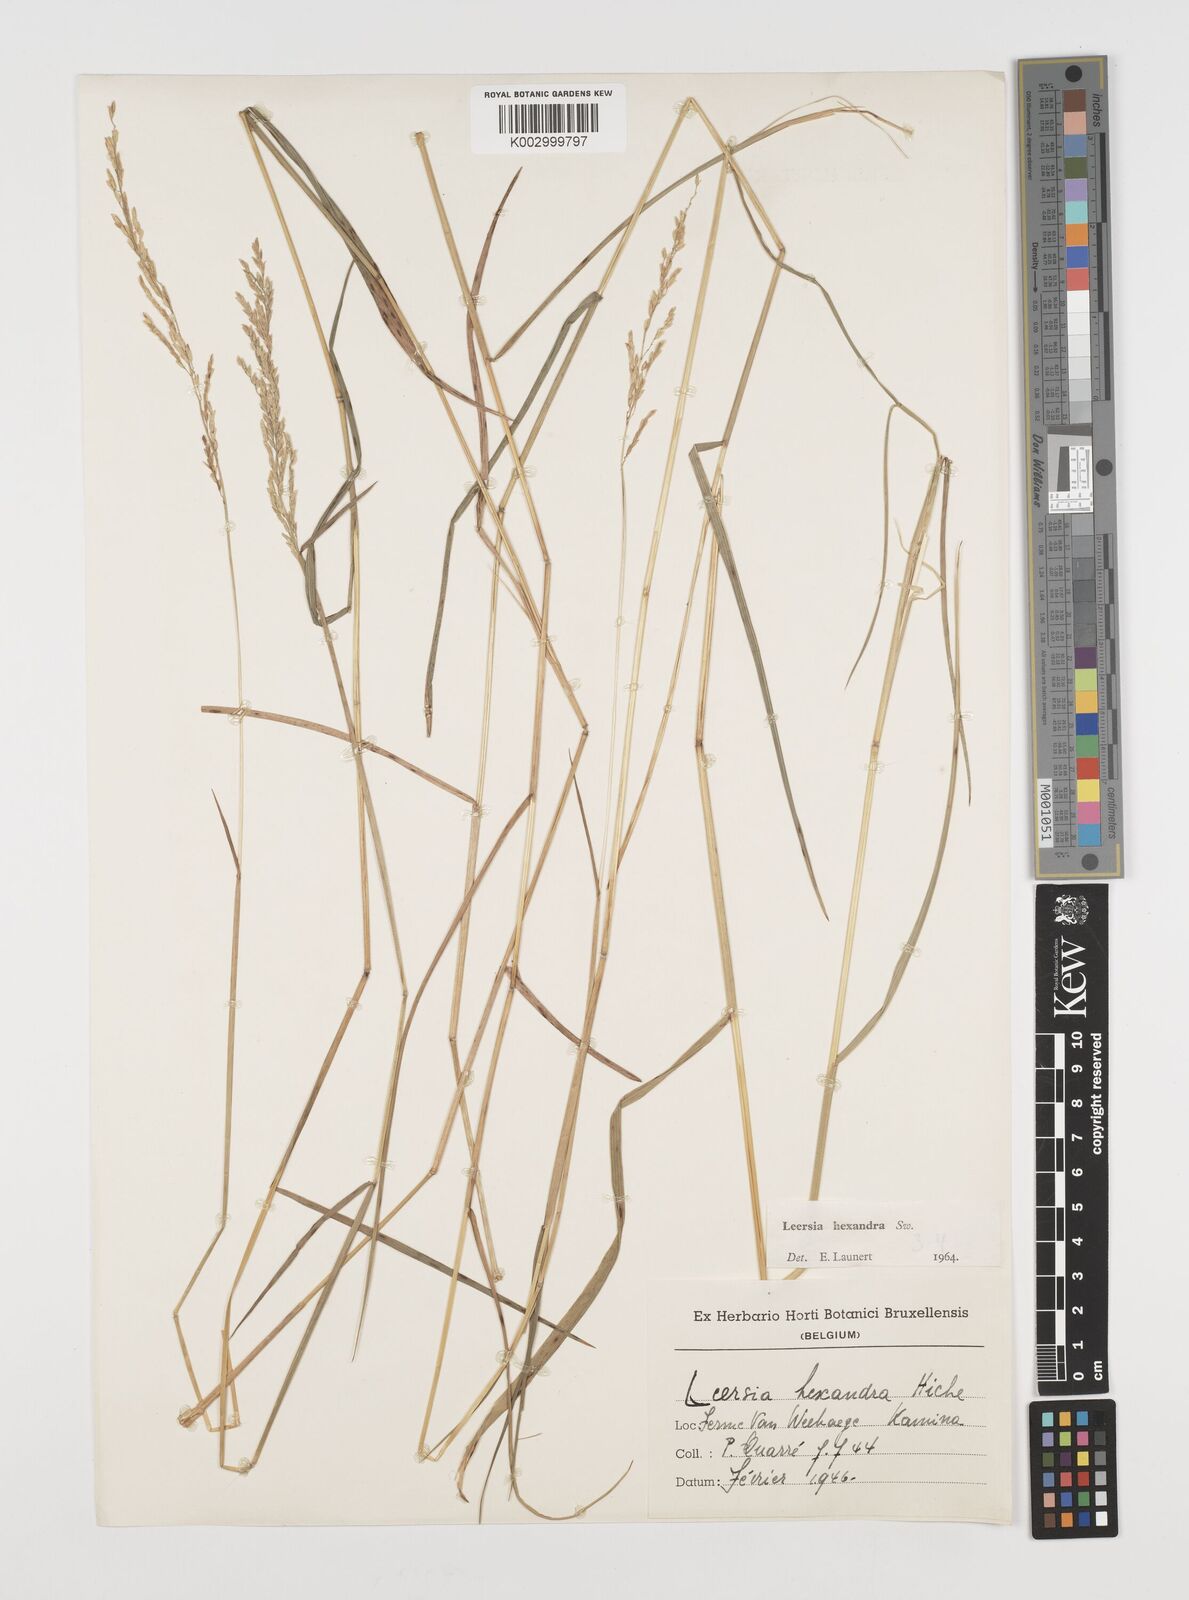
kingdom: Plantae
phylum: Tracheophyta
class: Liliopsida
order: Poales
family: Poaceae
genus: Leersia
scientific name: Leersia hexandra
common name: Southern cut grass
